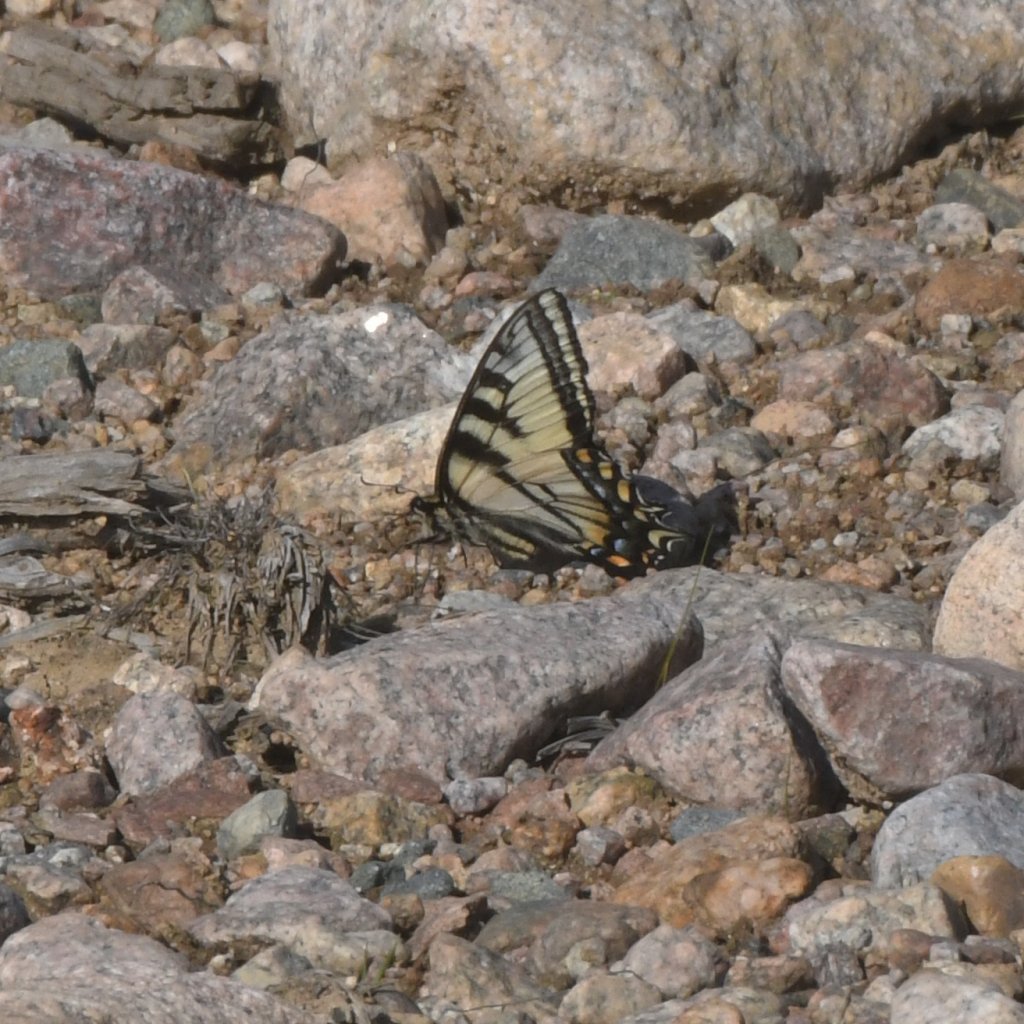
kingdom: Animalia
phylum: Arthropoda
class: Insecta
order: Lepidoptera
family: Papilionidae
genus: Pterourus
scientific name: Pterourus canadensis
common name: Canadian Tiger Swallowtail
